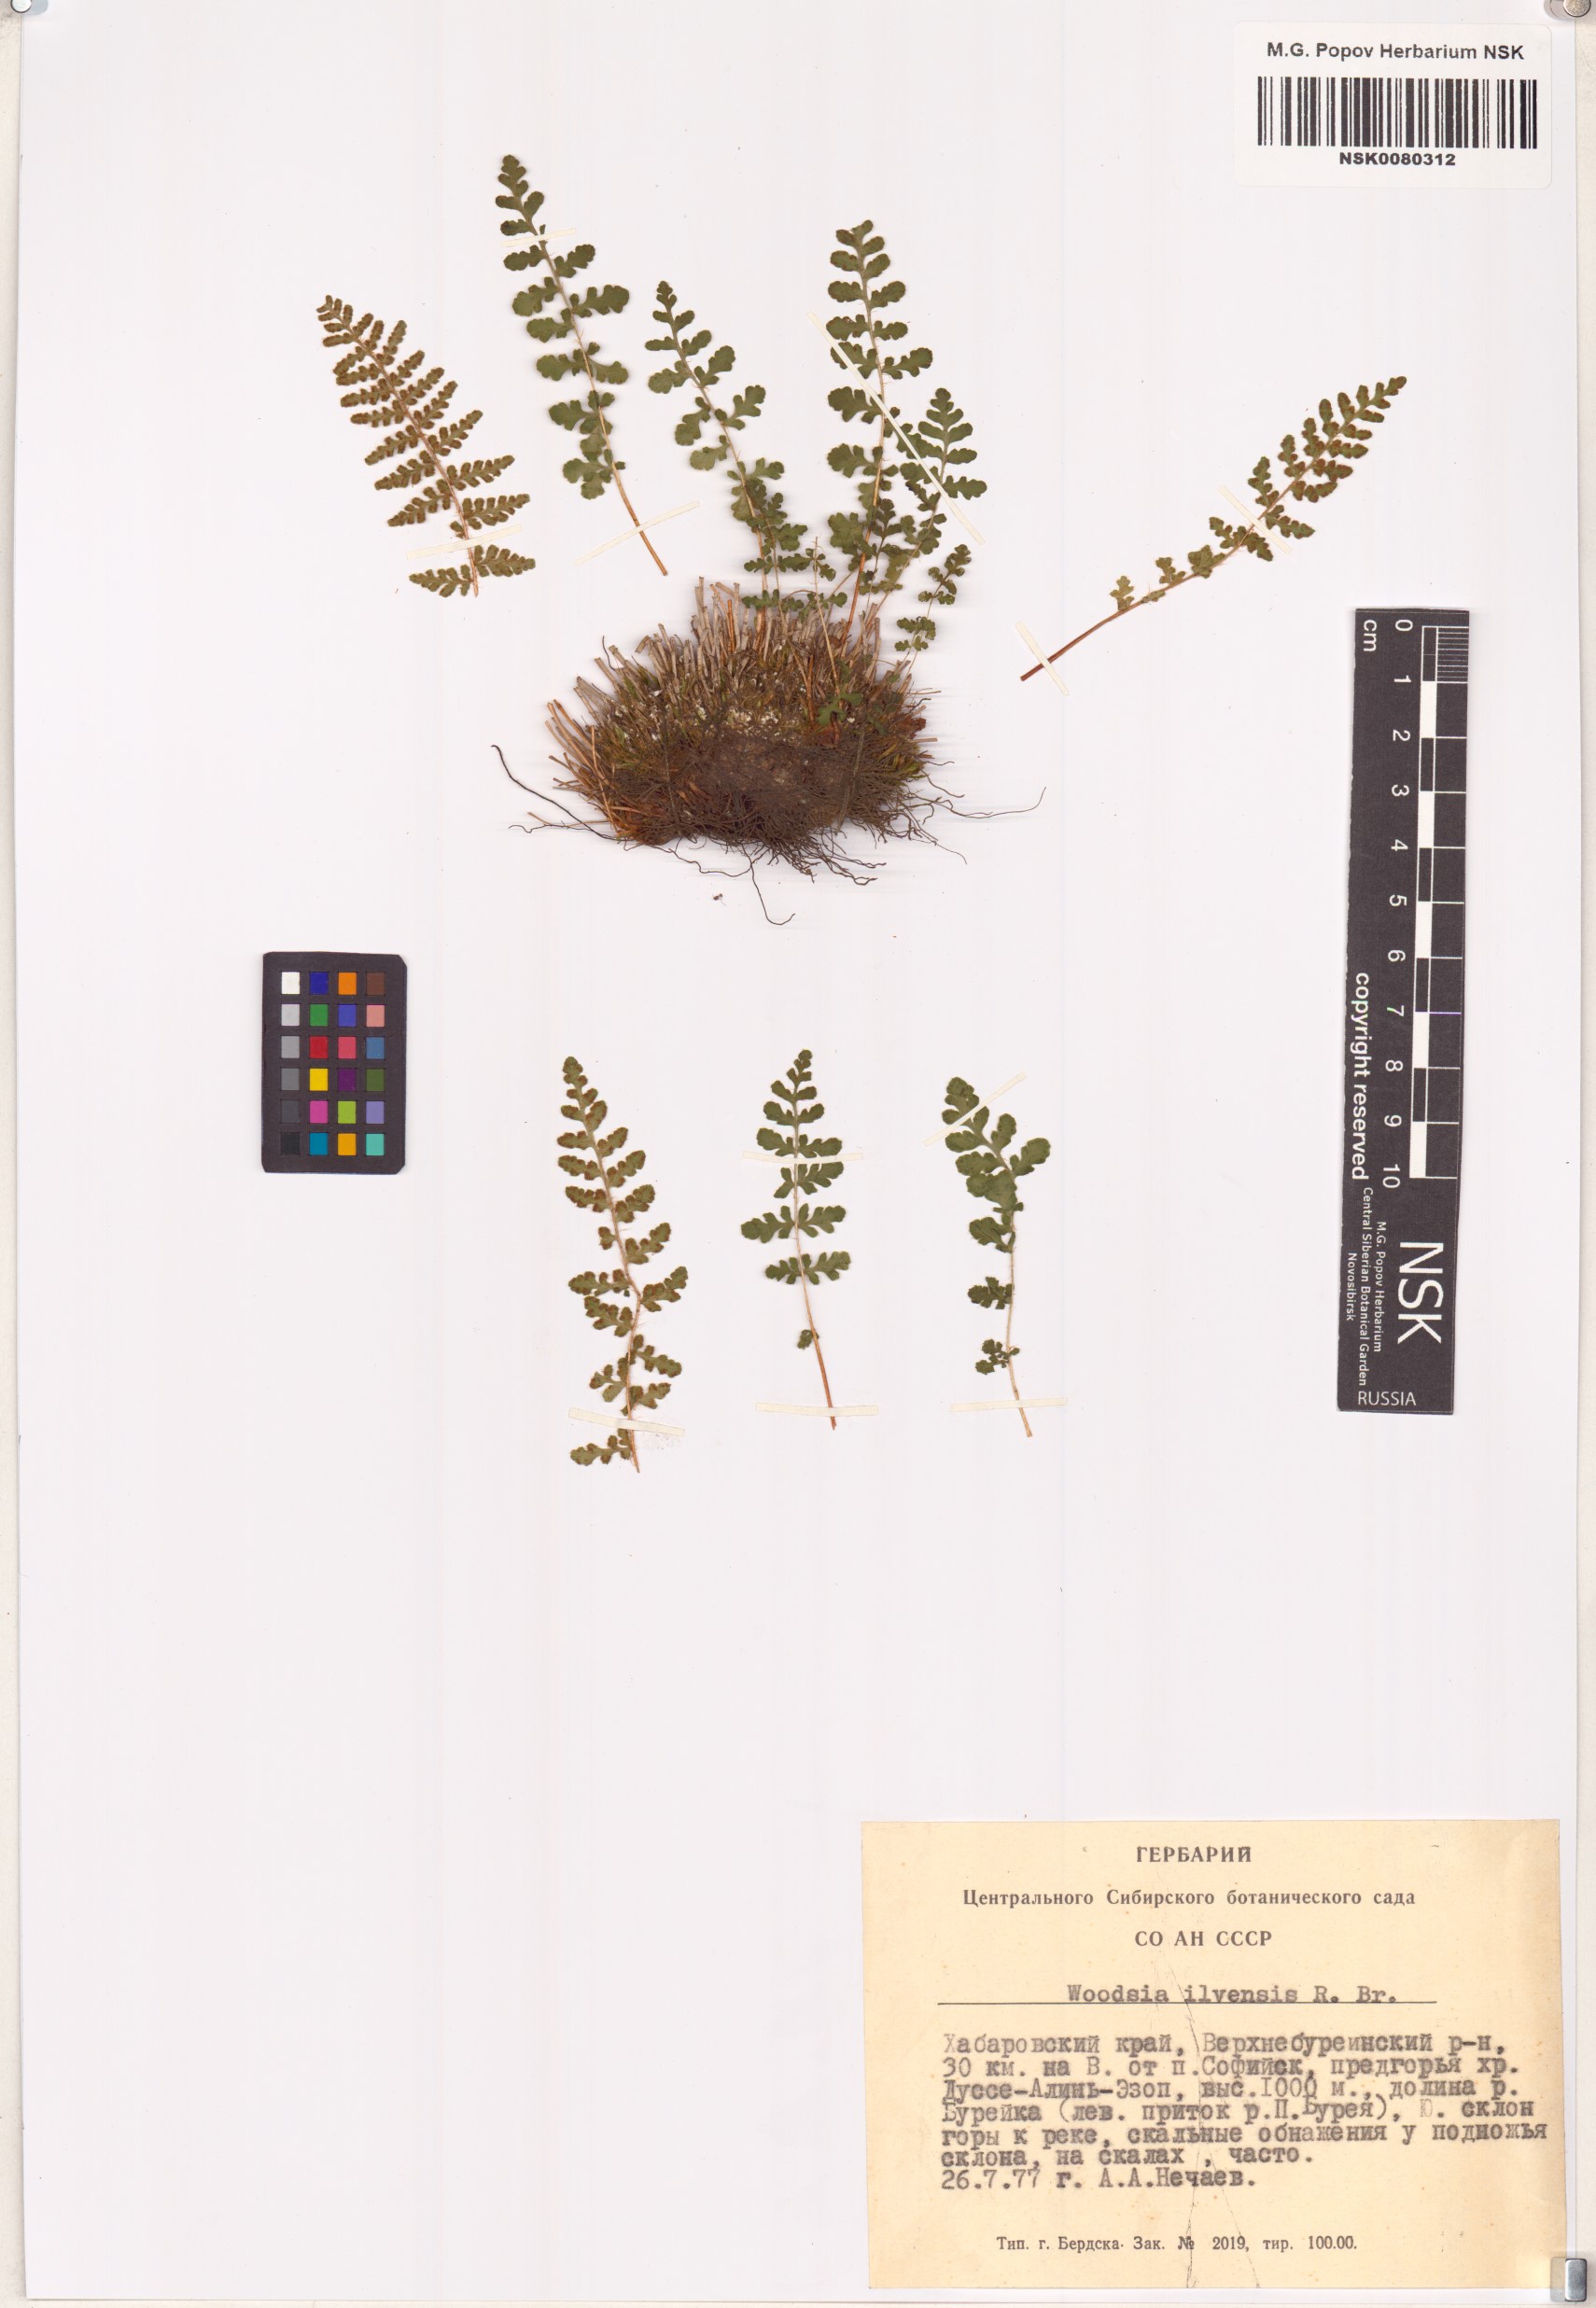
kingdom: Plantae
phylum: Tracheophyta
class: Polypodiopsida
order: Polypodiales
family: Woodsiaceae
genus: Woodsia
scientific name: Woodsia ilvensis
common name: Fragrant woodsia
